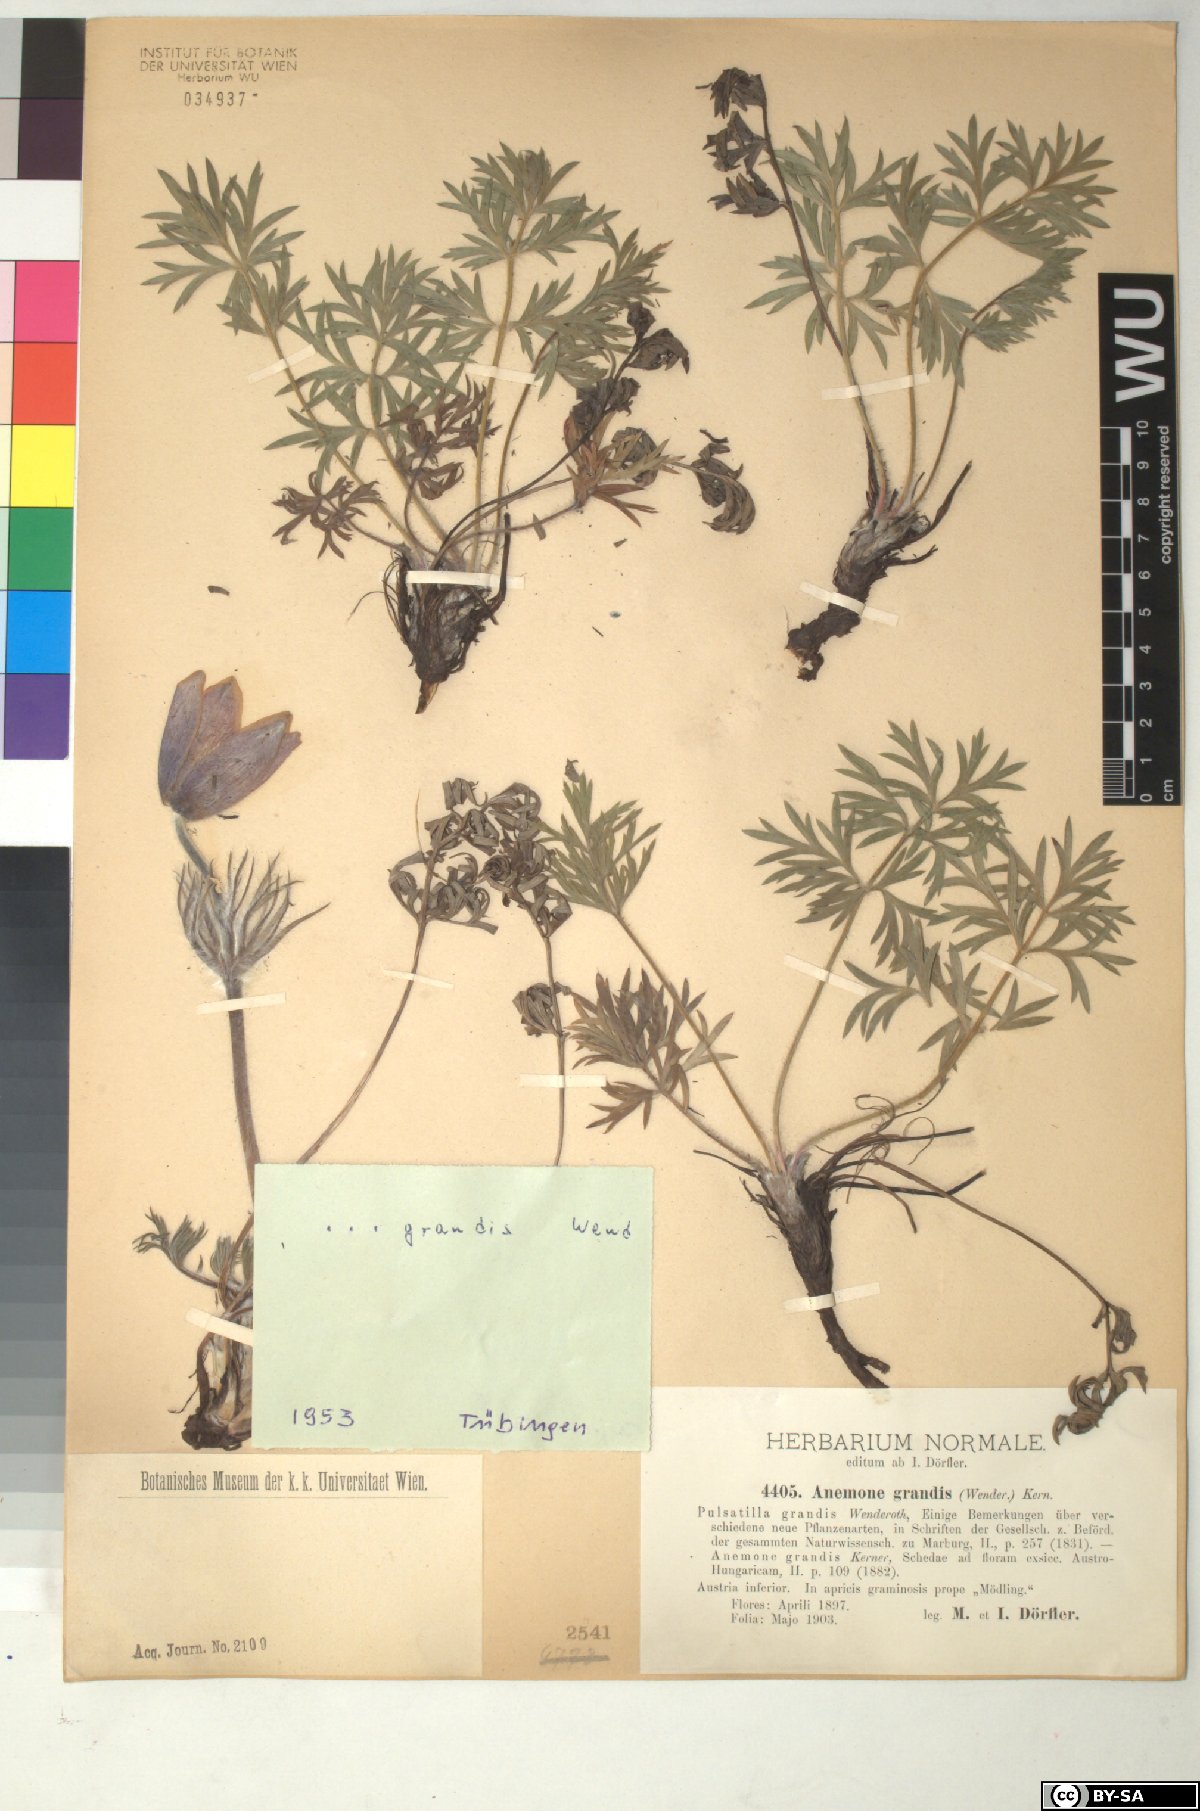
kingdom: Plantae
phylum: Tracheophyta
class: Magnoliopsida
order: Ranunculales
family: Ranunculaceae
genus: Pulsatilla
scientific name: Pulsatilla grandis
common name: Greater pasque flower
